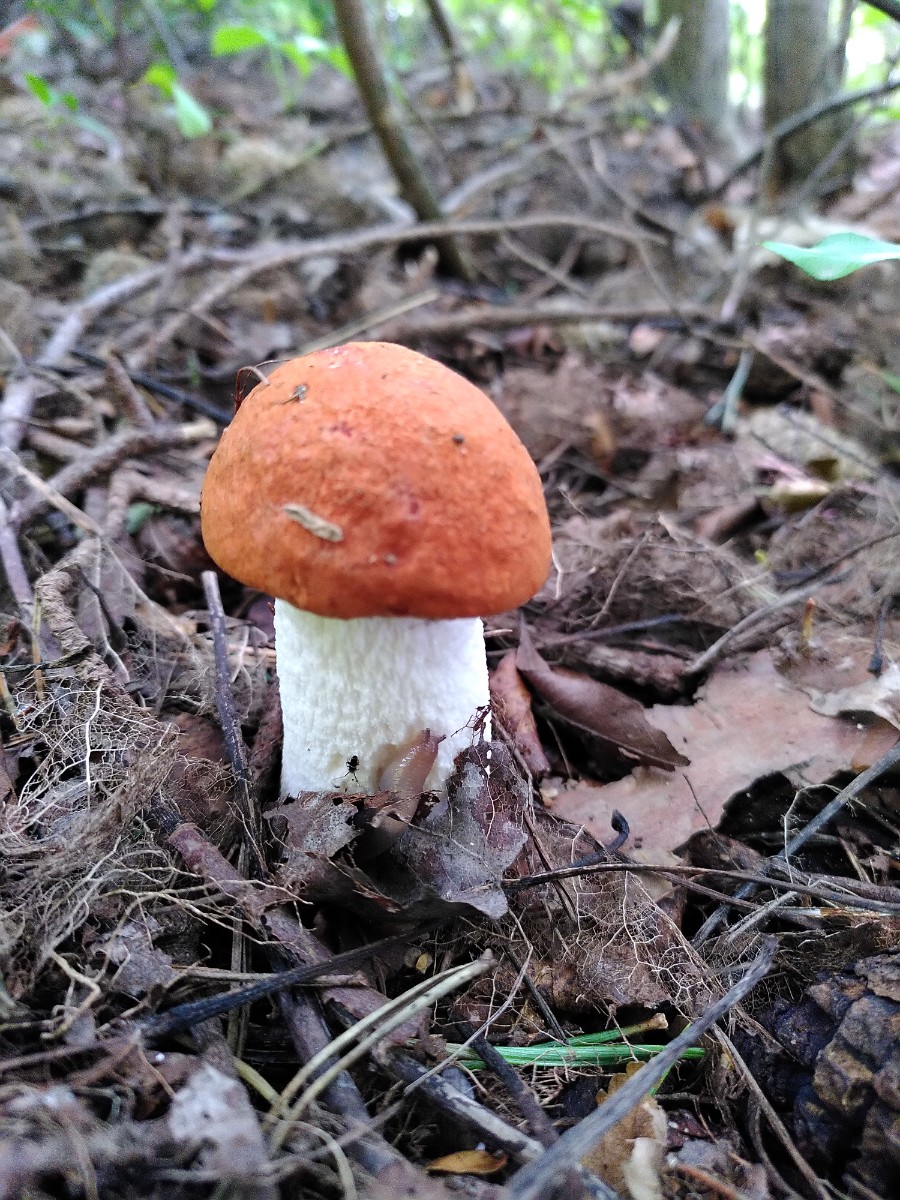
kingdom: Fungi
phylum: Basidiomycota
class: Agaricomycetes
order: Boletales
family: Boletaceae
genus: Leccinum
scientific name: Leccinum albostipitatum
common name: aspe-skælrørhat
